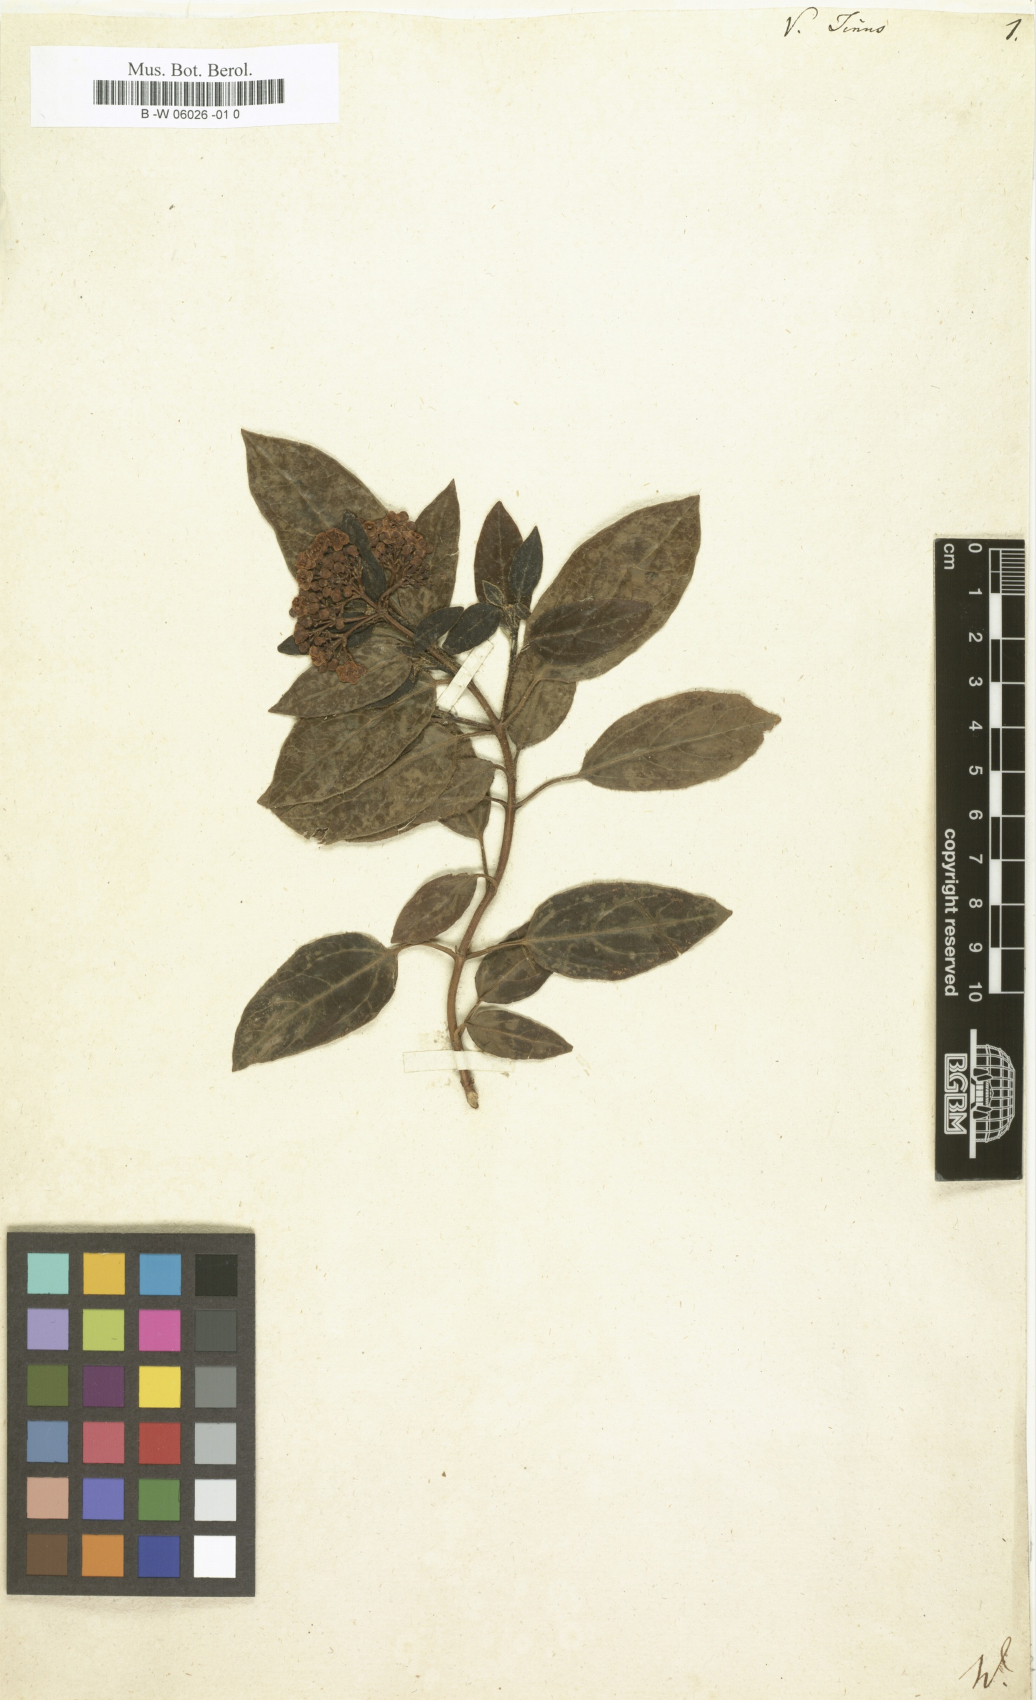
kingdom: Plantae
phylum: Tracheophyta
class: Magnoliopsida
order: Dipsacales
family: Viburnaceae
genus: Viburnum
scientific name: Viburnum tinus
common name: Laurustinus
